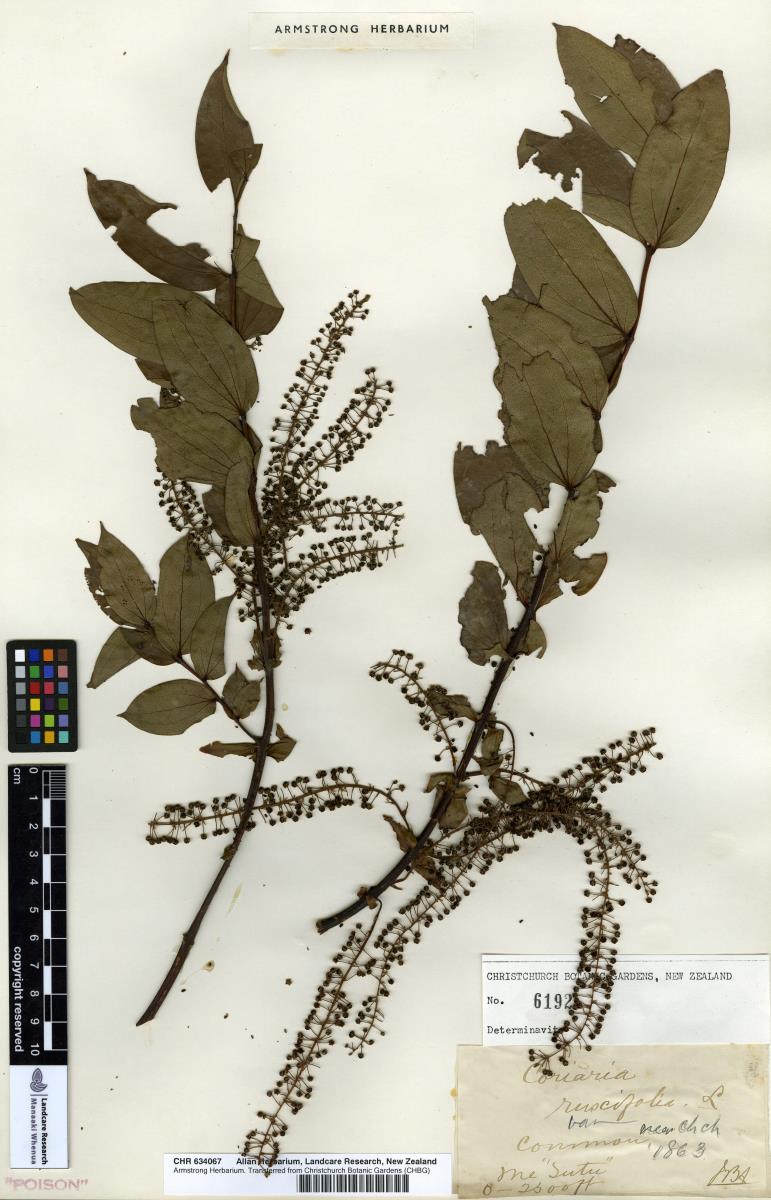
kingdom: Plantae
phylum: Tracheophyta
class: Magnoliopsida
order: Cucurbitales
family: Coriariaceae
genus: Coriaria
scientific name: Coriaria arborea
